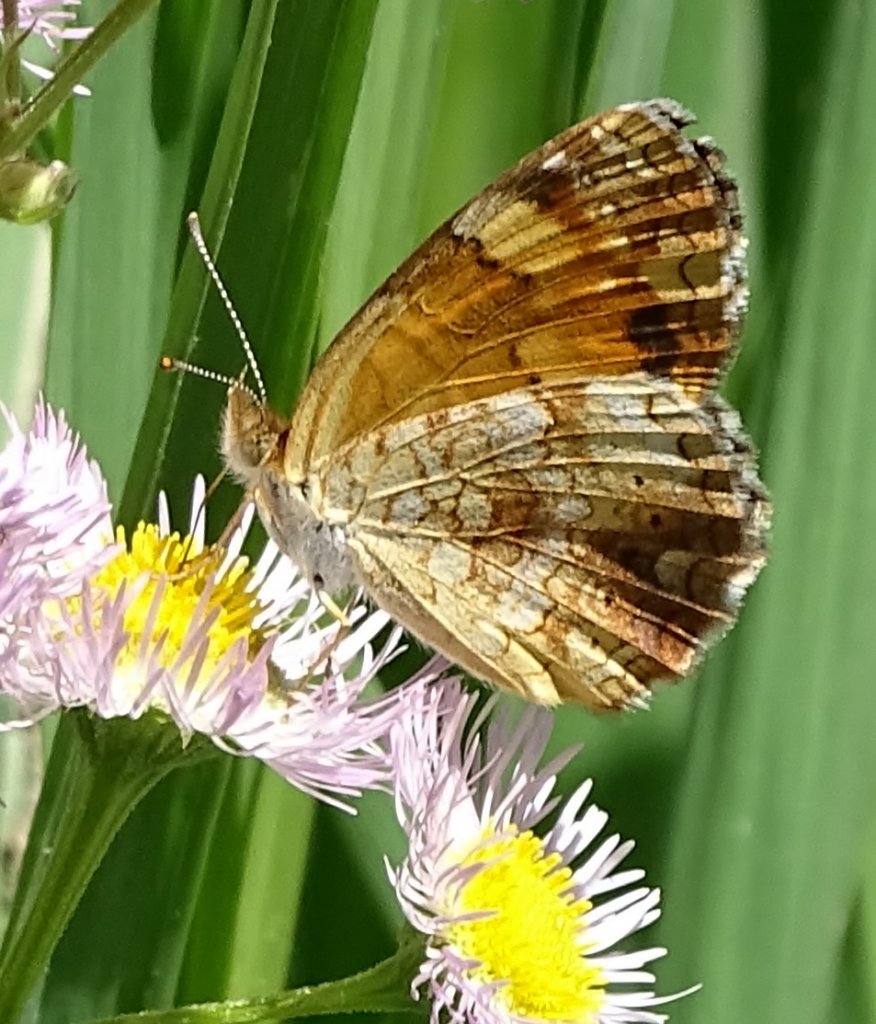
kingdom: Animalia
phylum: Arthropoda
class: Insecta
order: Lepidoptera
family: Nymphalidae
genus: Phyciodes
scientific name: Phyciodes tharos
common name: Pearl Crescent
